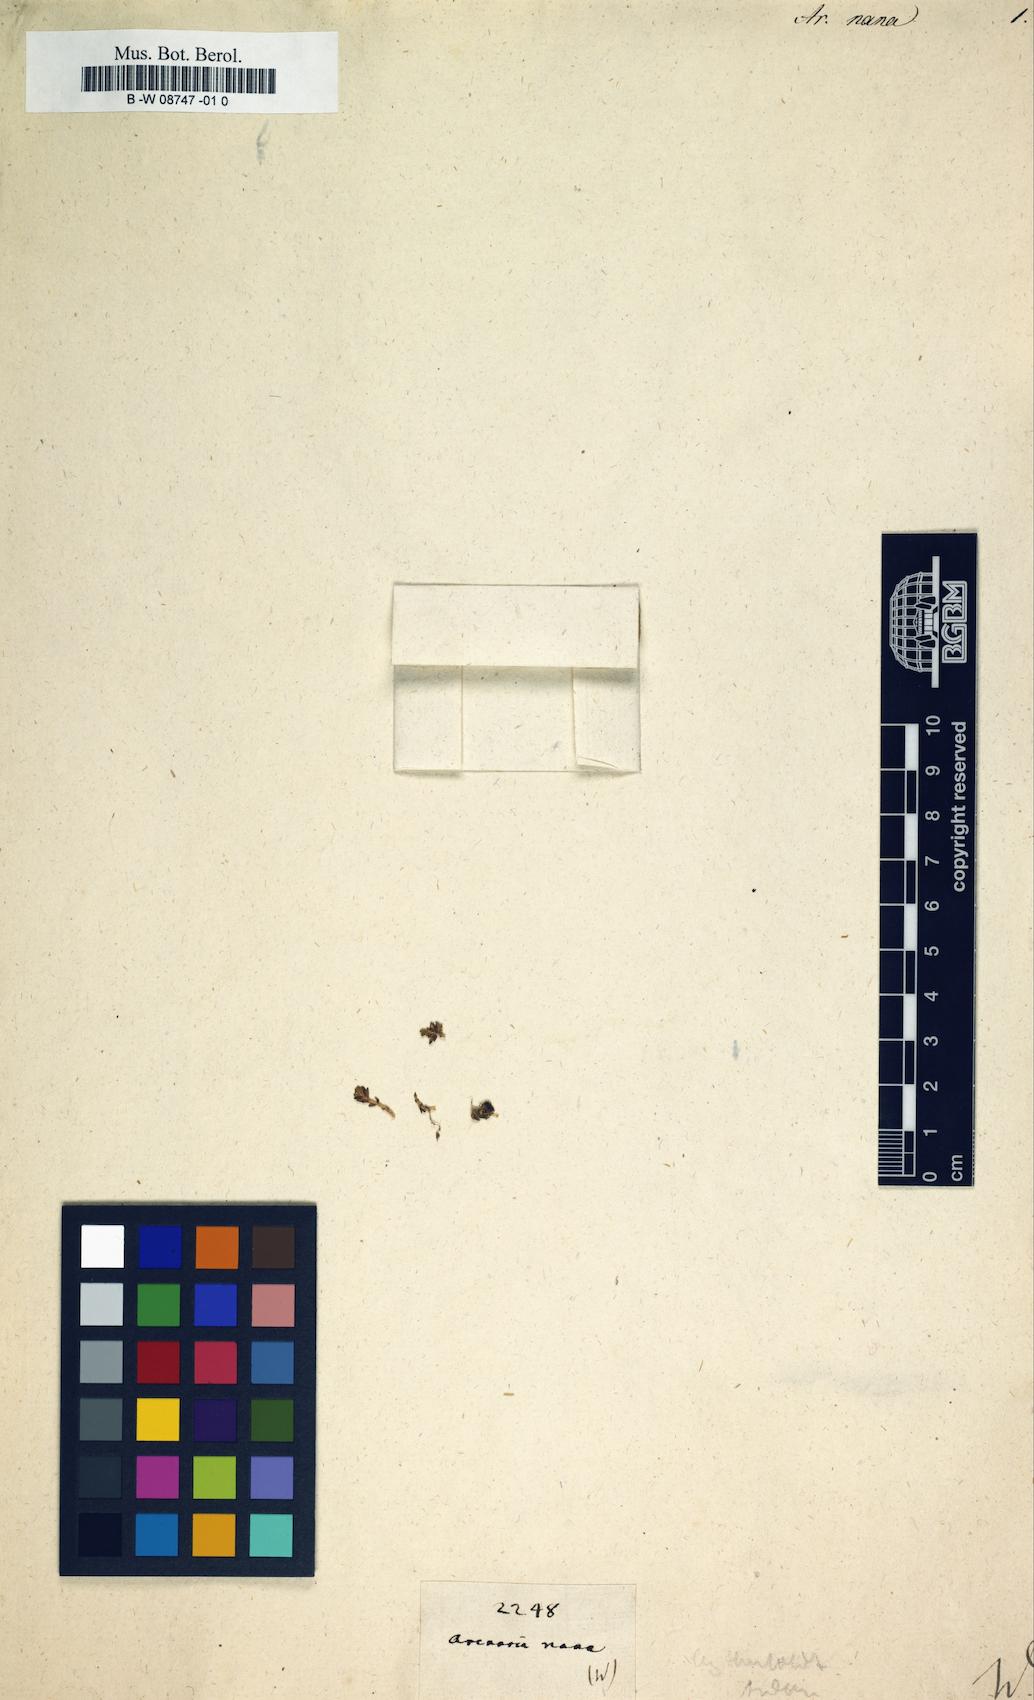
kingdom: Plantae
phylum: Tracheophyta
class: Magnoliopsida
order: Caryophyllales
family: Caryophyllaceae
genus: Arenaria
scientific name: Arenaria saponarioides
